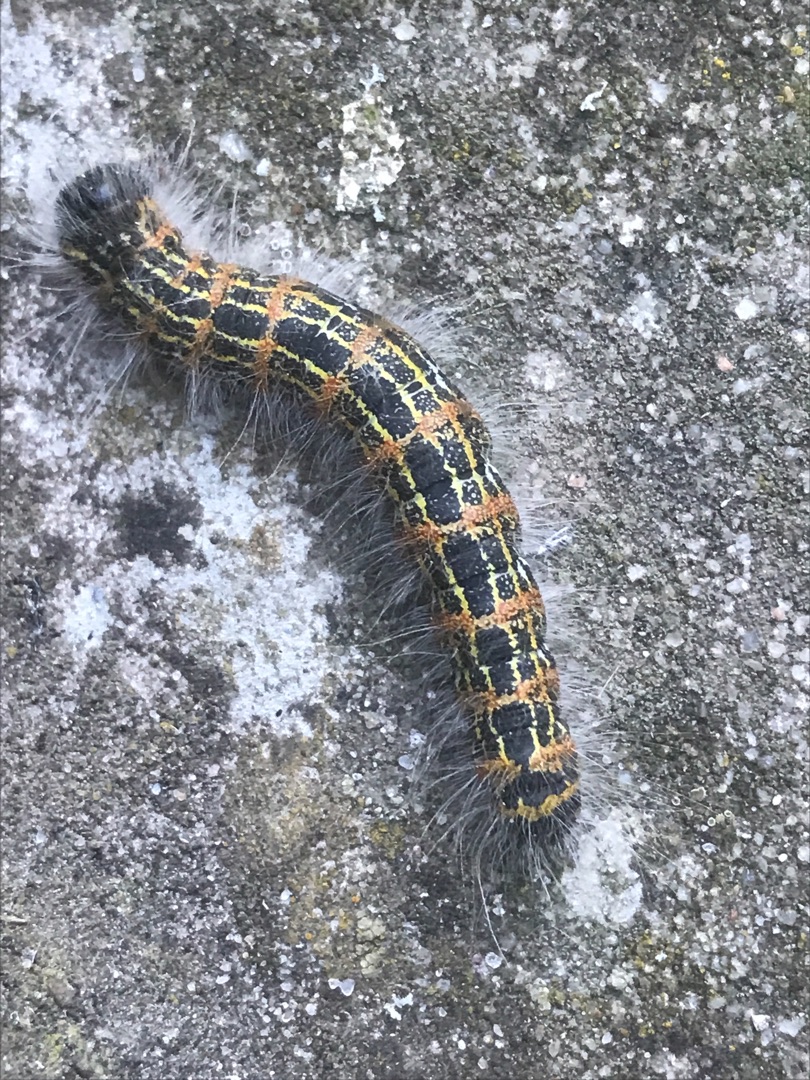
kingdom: Animalia
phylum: Arthropoda
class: Insecta
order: Lepidoptera
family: Notodontidae
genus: Phalera
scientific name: Phalera bucephala
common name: Måneplet
